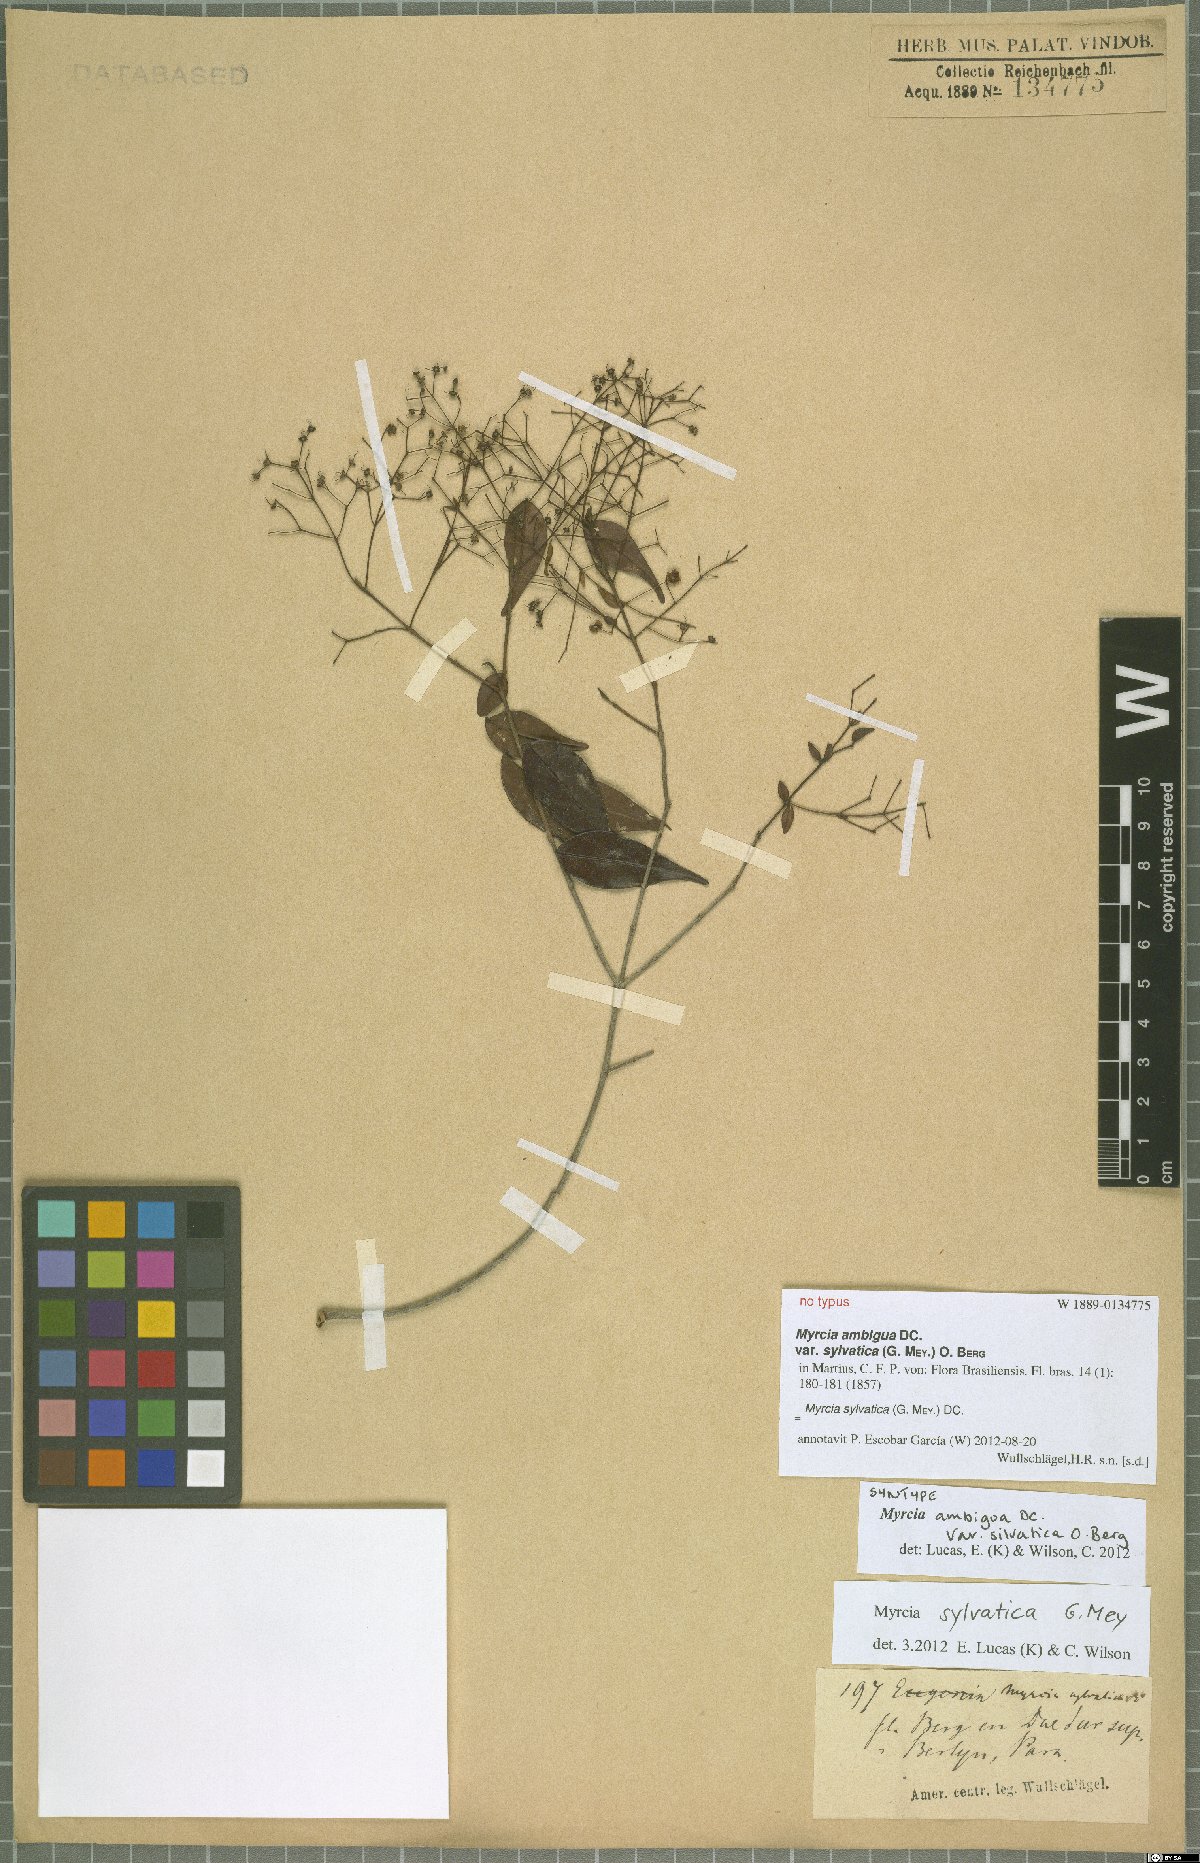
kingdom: Plantae
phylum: Tracheophyta
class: Magnoliopsida
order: Myrtales
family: Myrtaceae
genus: Myrcia
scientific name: Myrcia sylvatica
